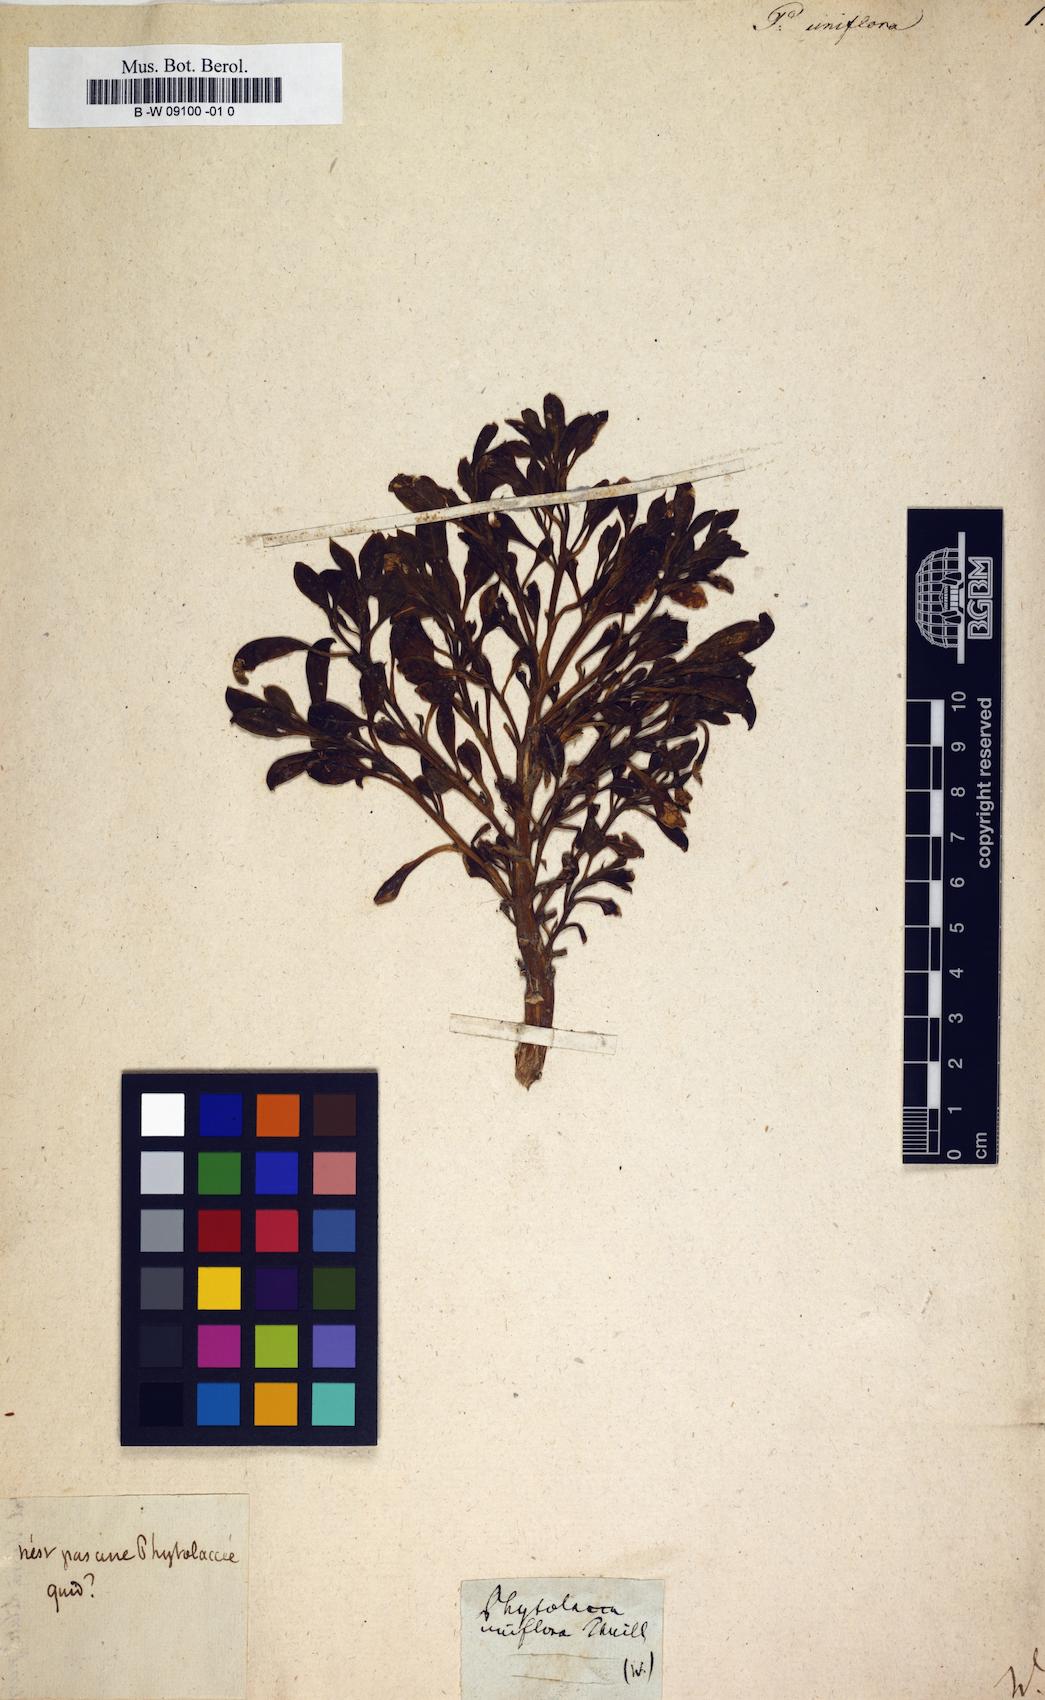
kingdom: Plantae
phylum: Tracheophyta
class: Magnoliopsida
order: Caryophyllales
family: Phytolaccaceae
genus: Phytolacca
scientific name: Phytolacca
